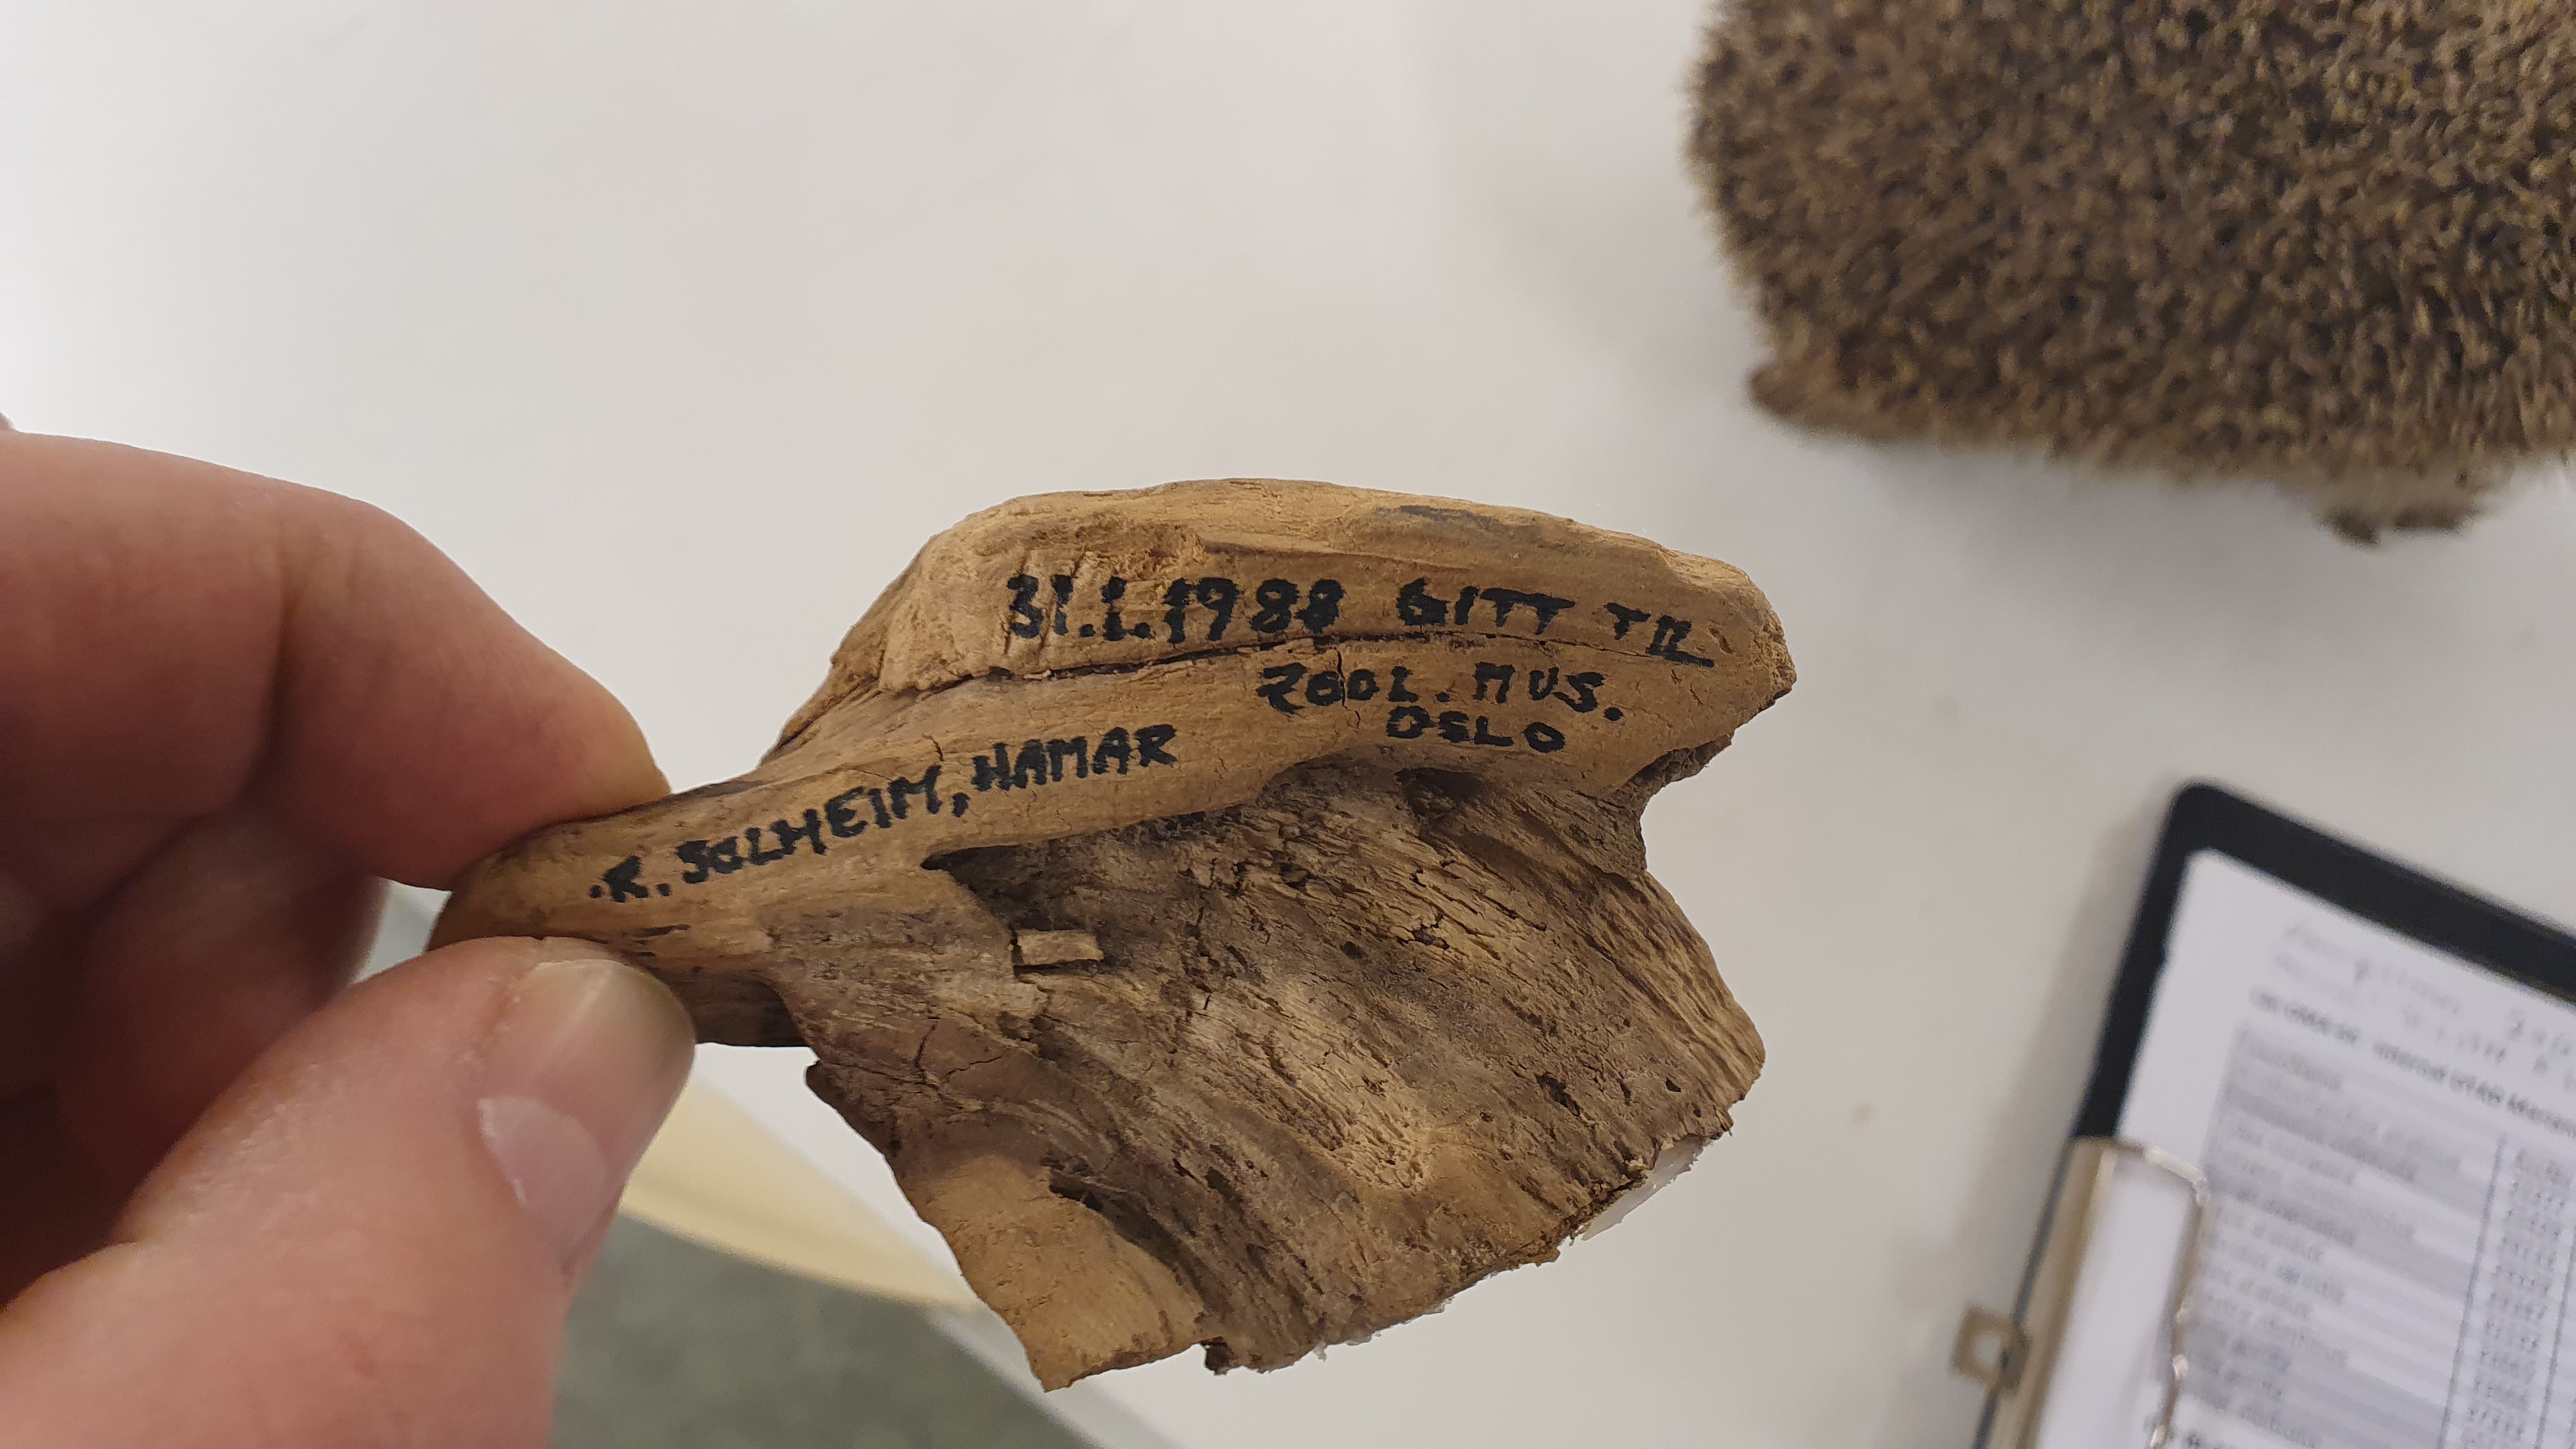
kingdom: Animalia
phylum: Chordata
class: Mammalia
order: Soricomorpha
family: Soricidae
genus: Sorex
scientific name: Sorex minutissimus
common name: Eurasian least shrew
